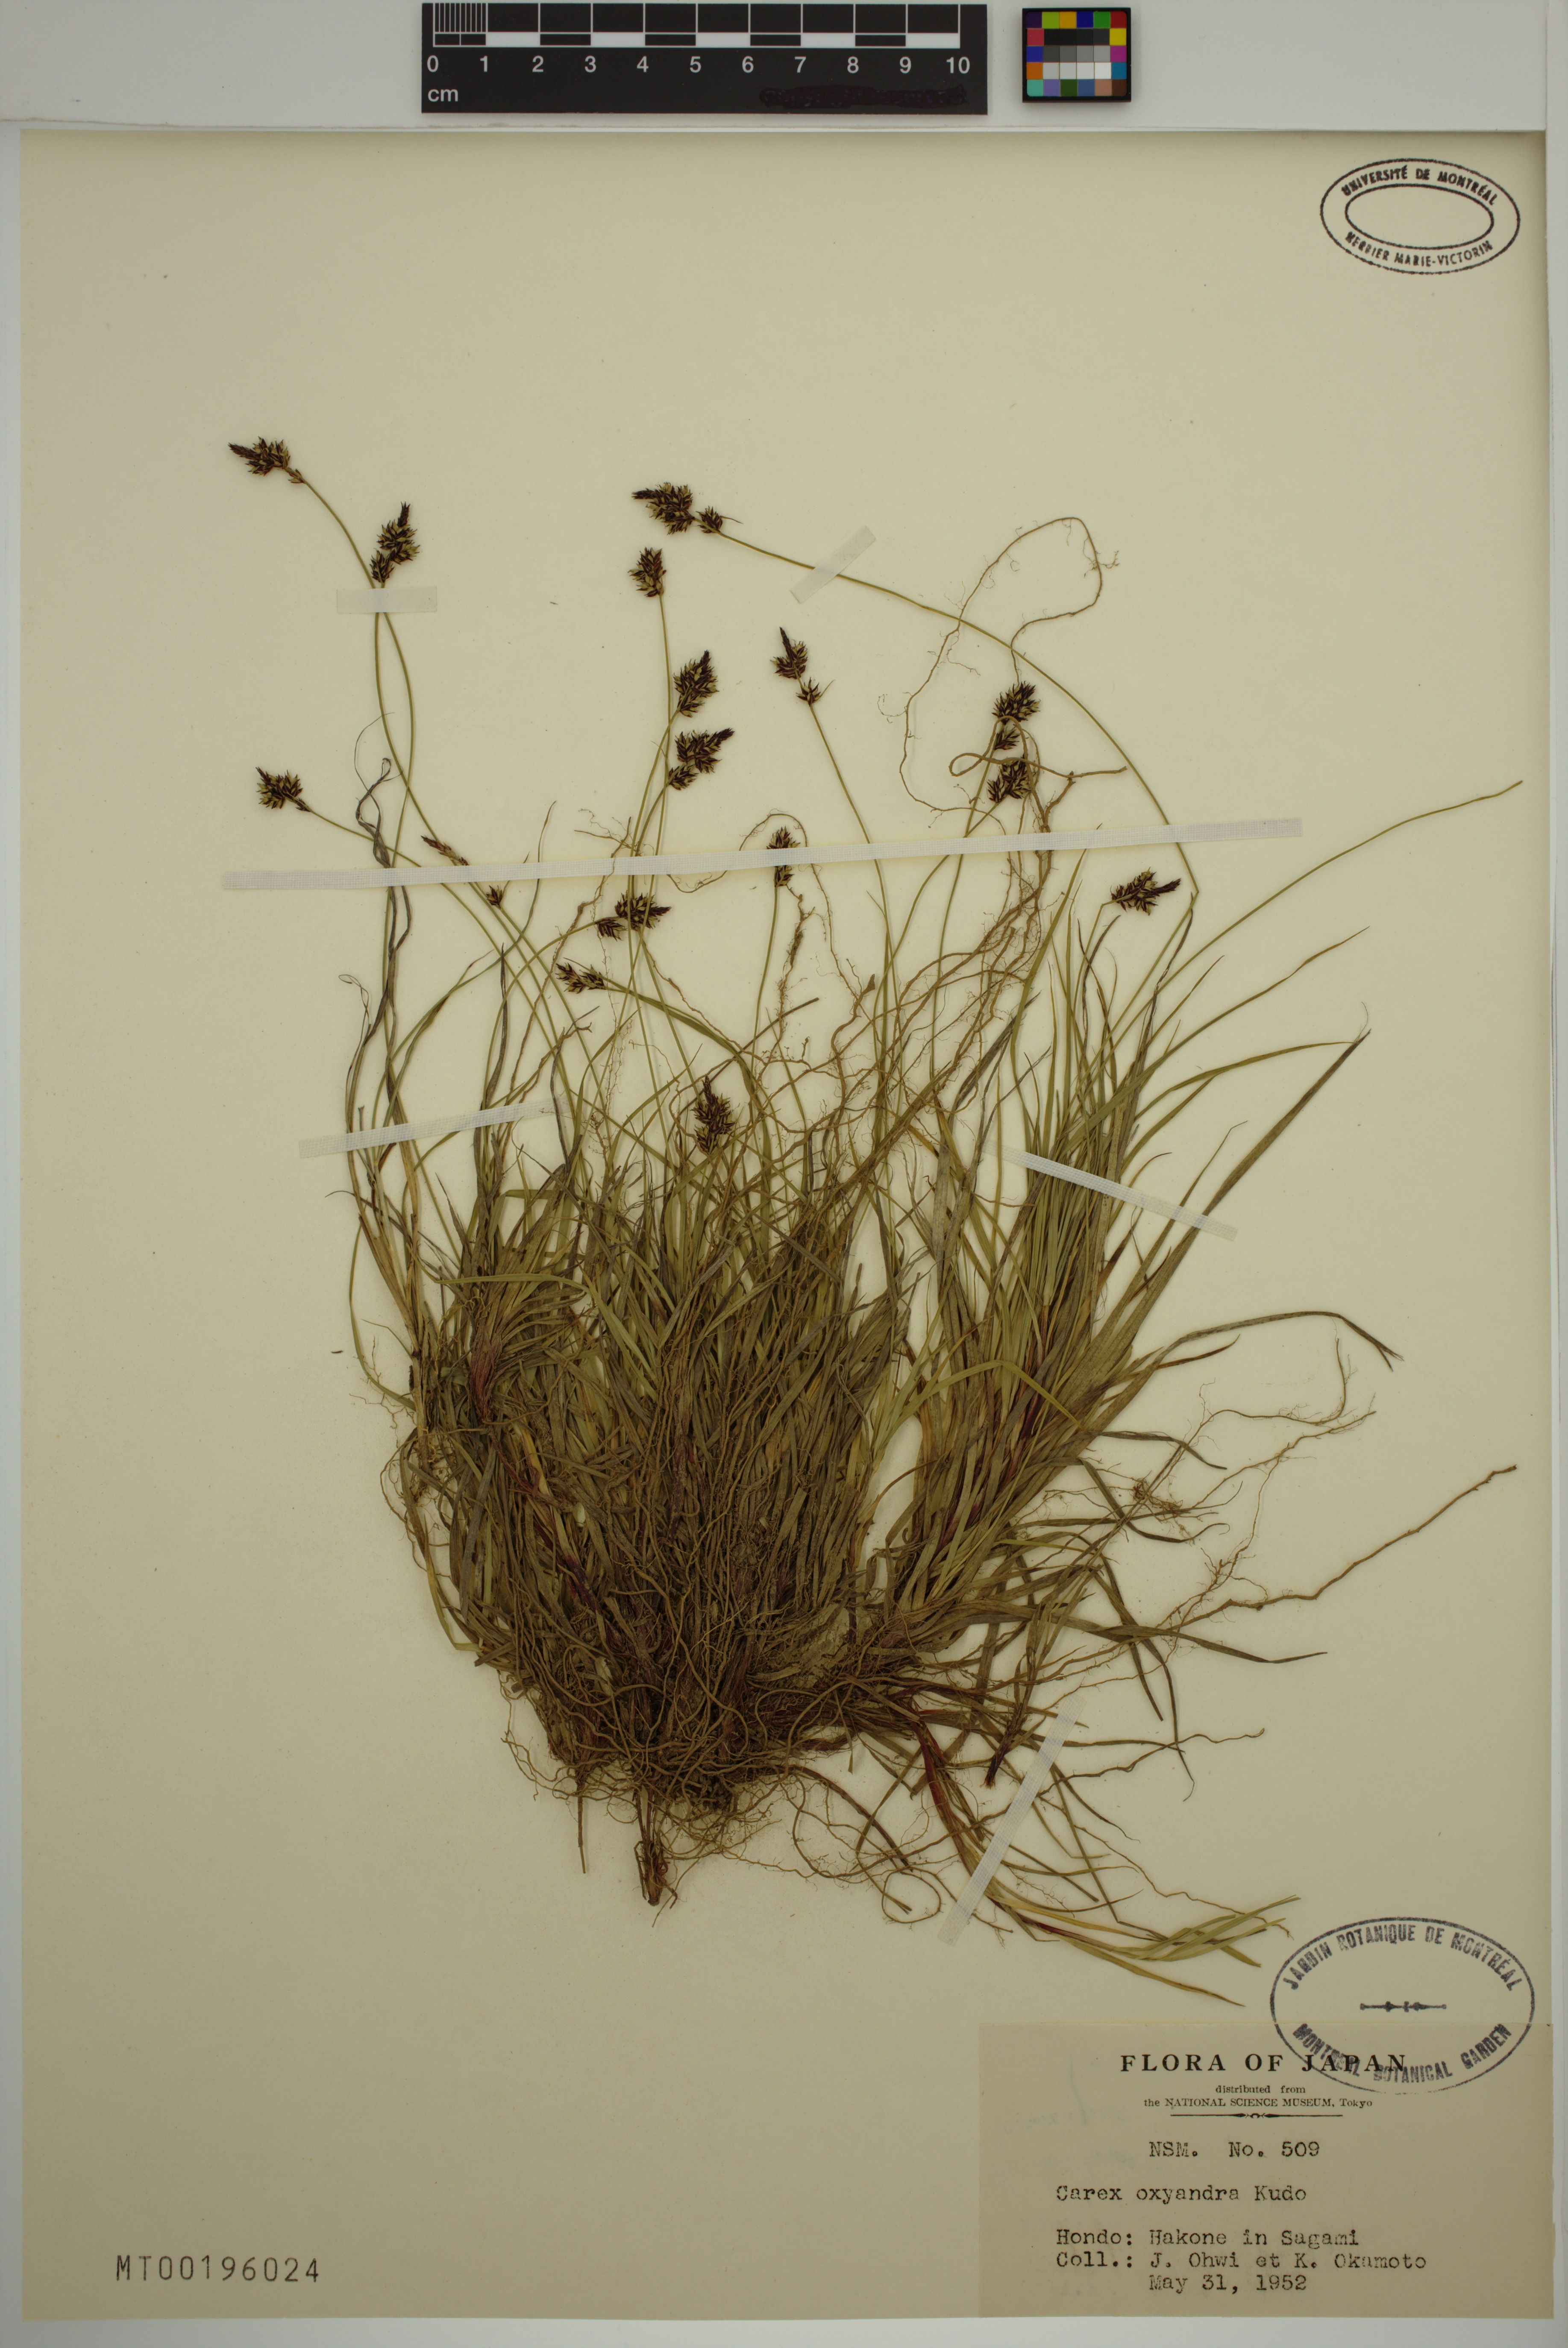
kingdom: Plantae
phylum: Tracheophyta
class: Liliopsida
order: Poales
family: Cyperaceae
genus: Carex
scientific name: Carex oxyandra
